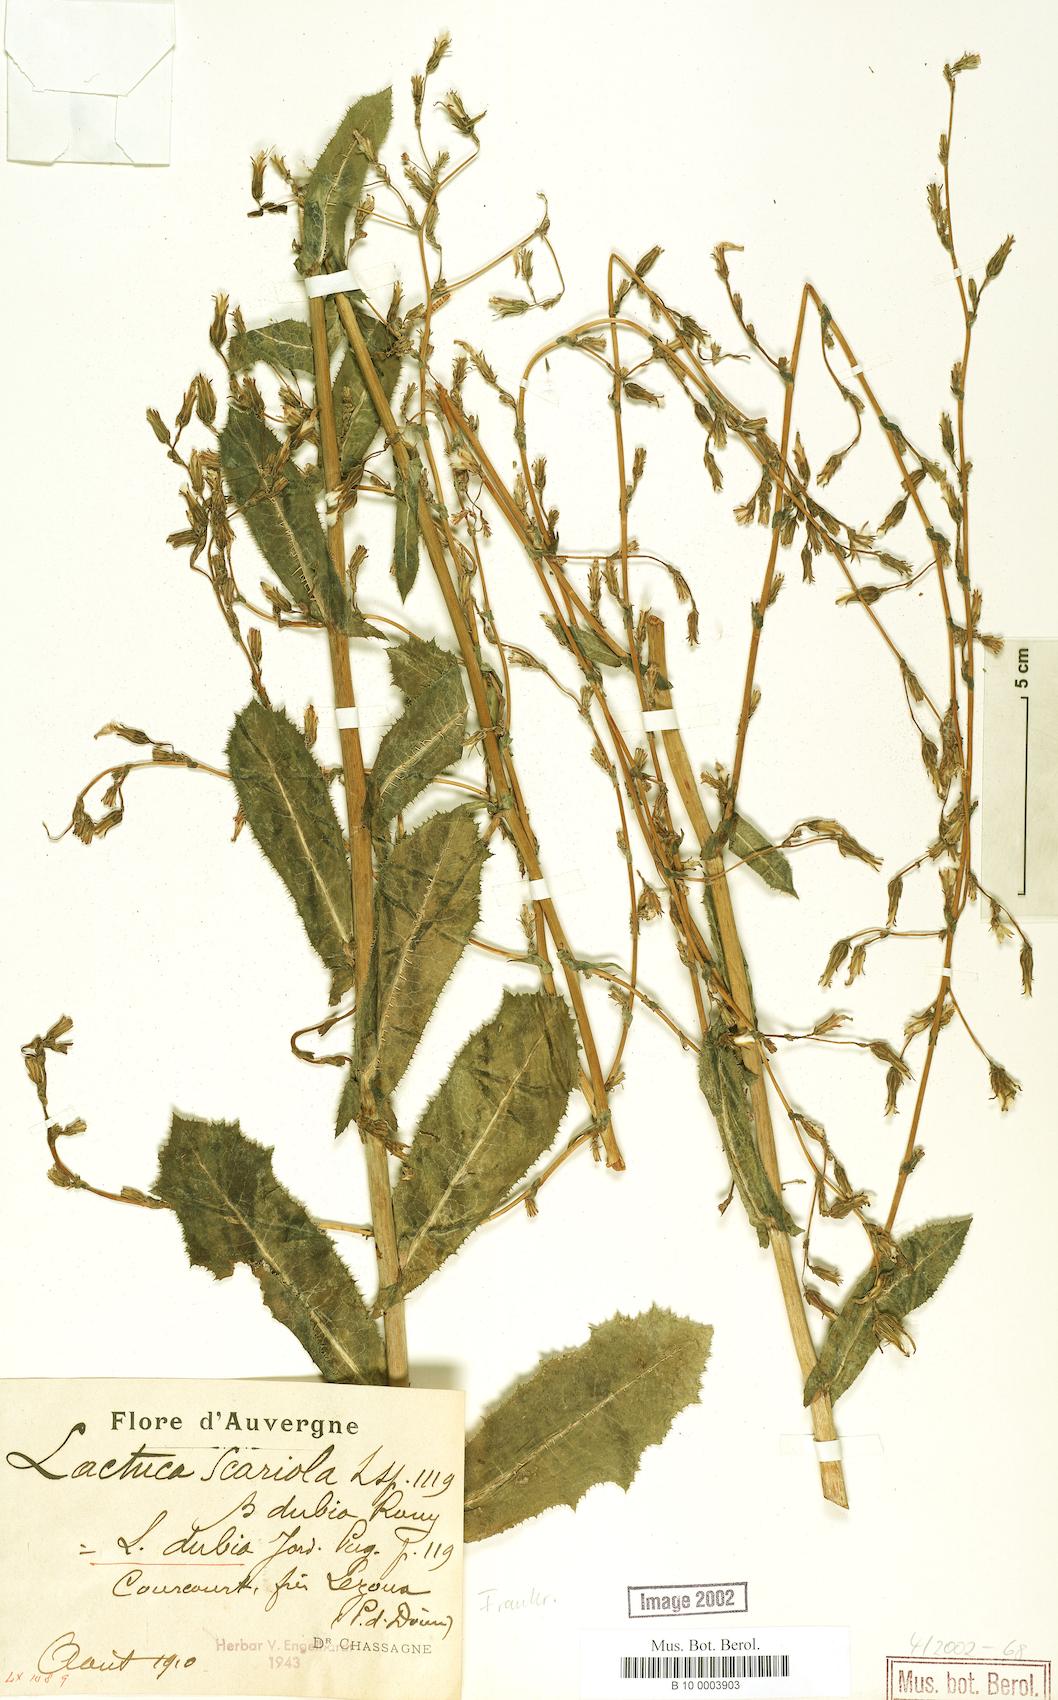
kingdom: Plantae
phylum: Tracheophyta
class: Magnoliopsida
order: Asterales
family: Asteraceae
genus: Lactuca
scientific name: Lactuca serriola
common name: Prickly lettuce
